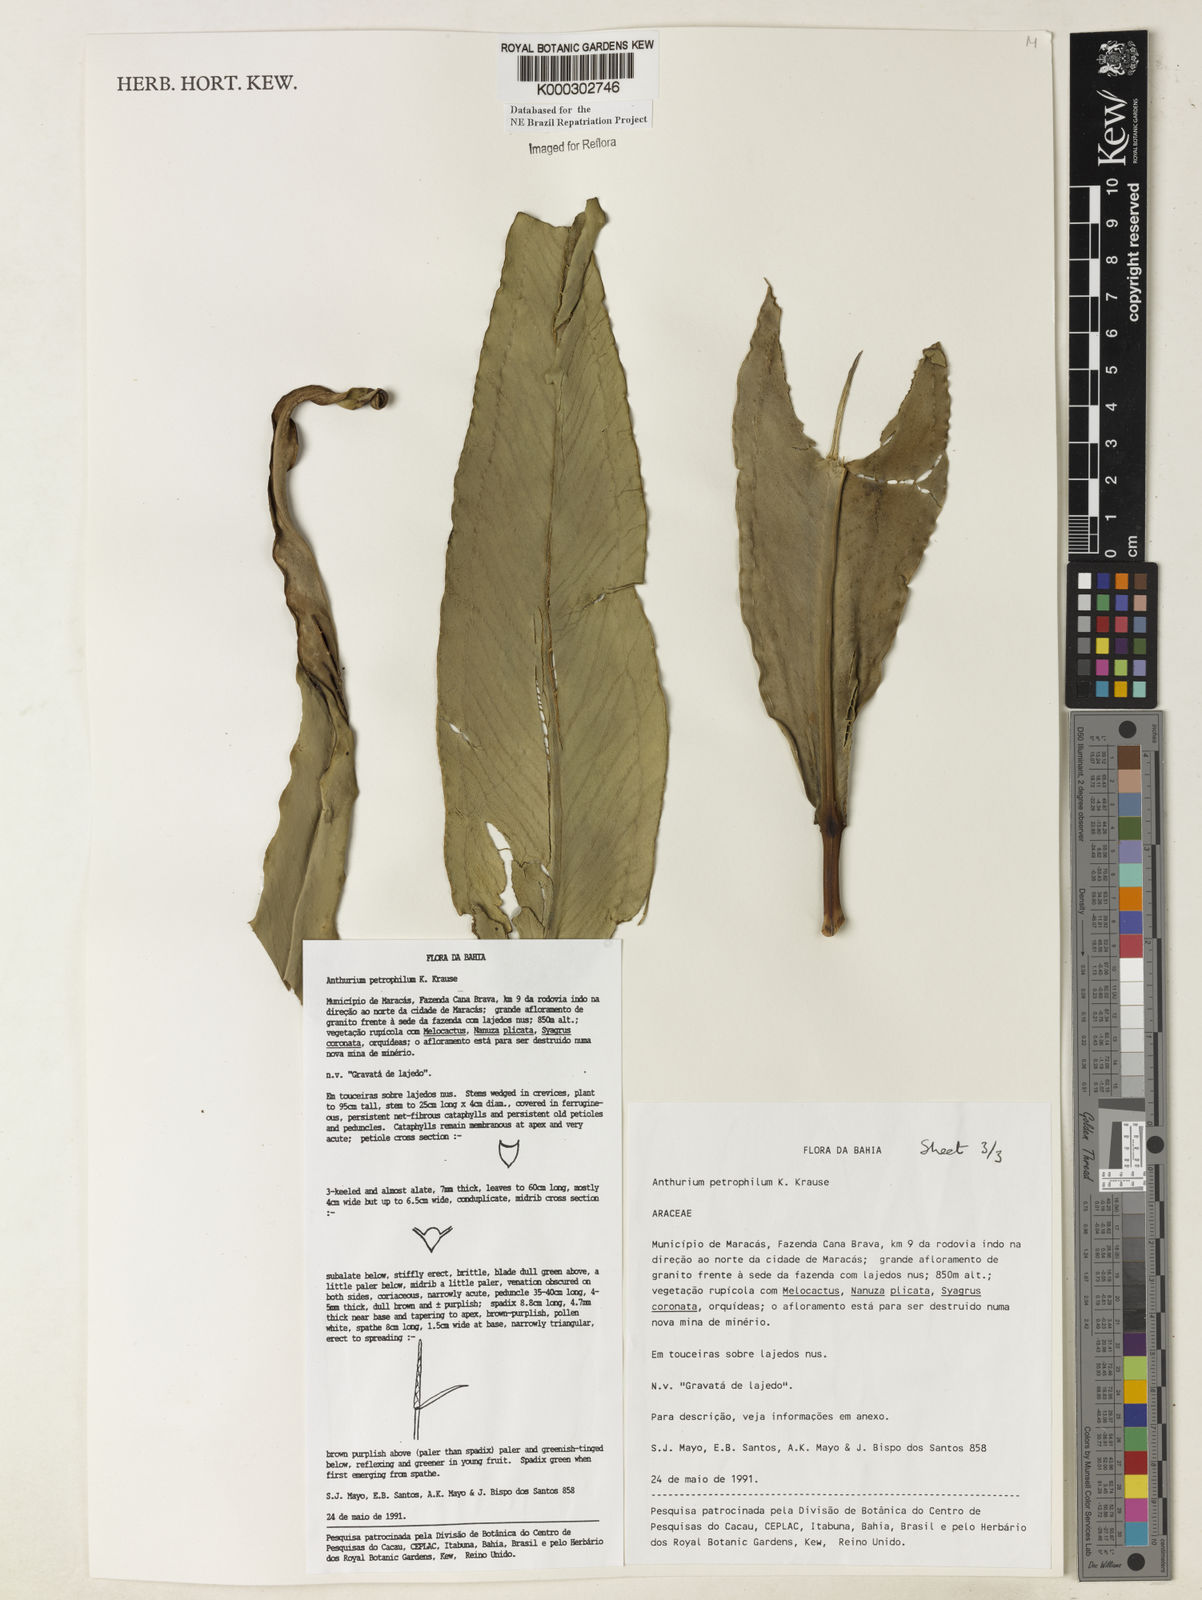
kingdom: Plantae
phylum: Tracheophyta
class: Liliopsida
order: Alismatales
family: Araceae
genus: Anthurium
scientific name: Anthurium petrophilum
